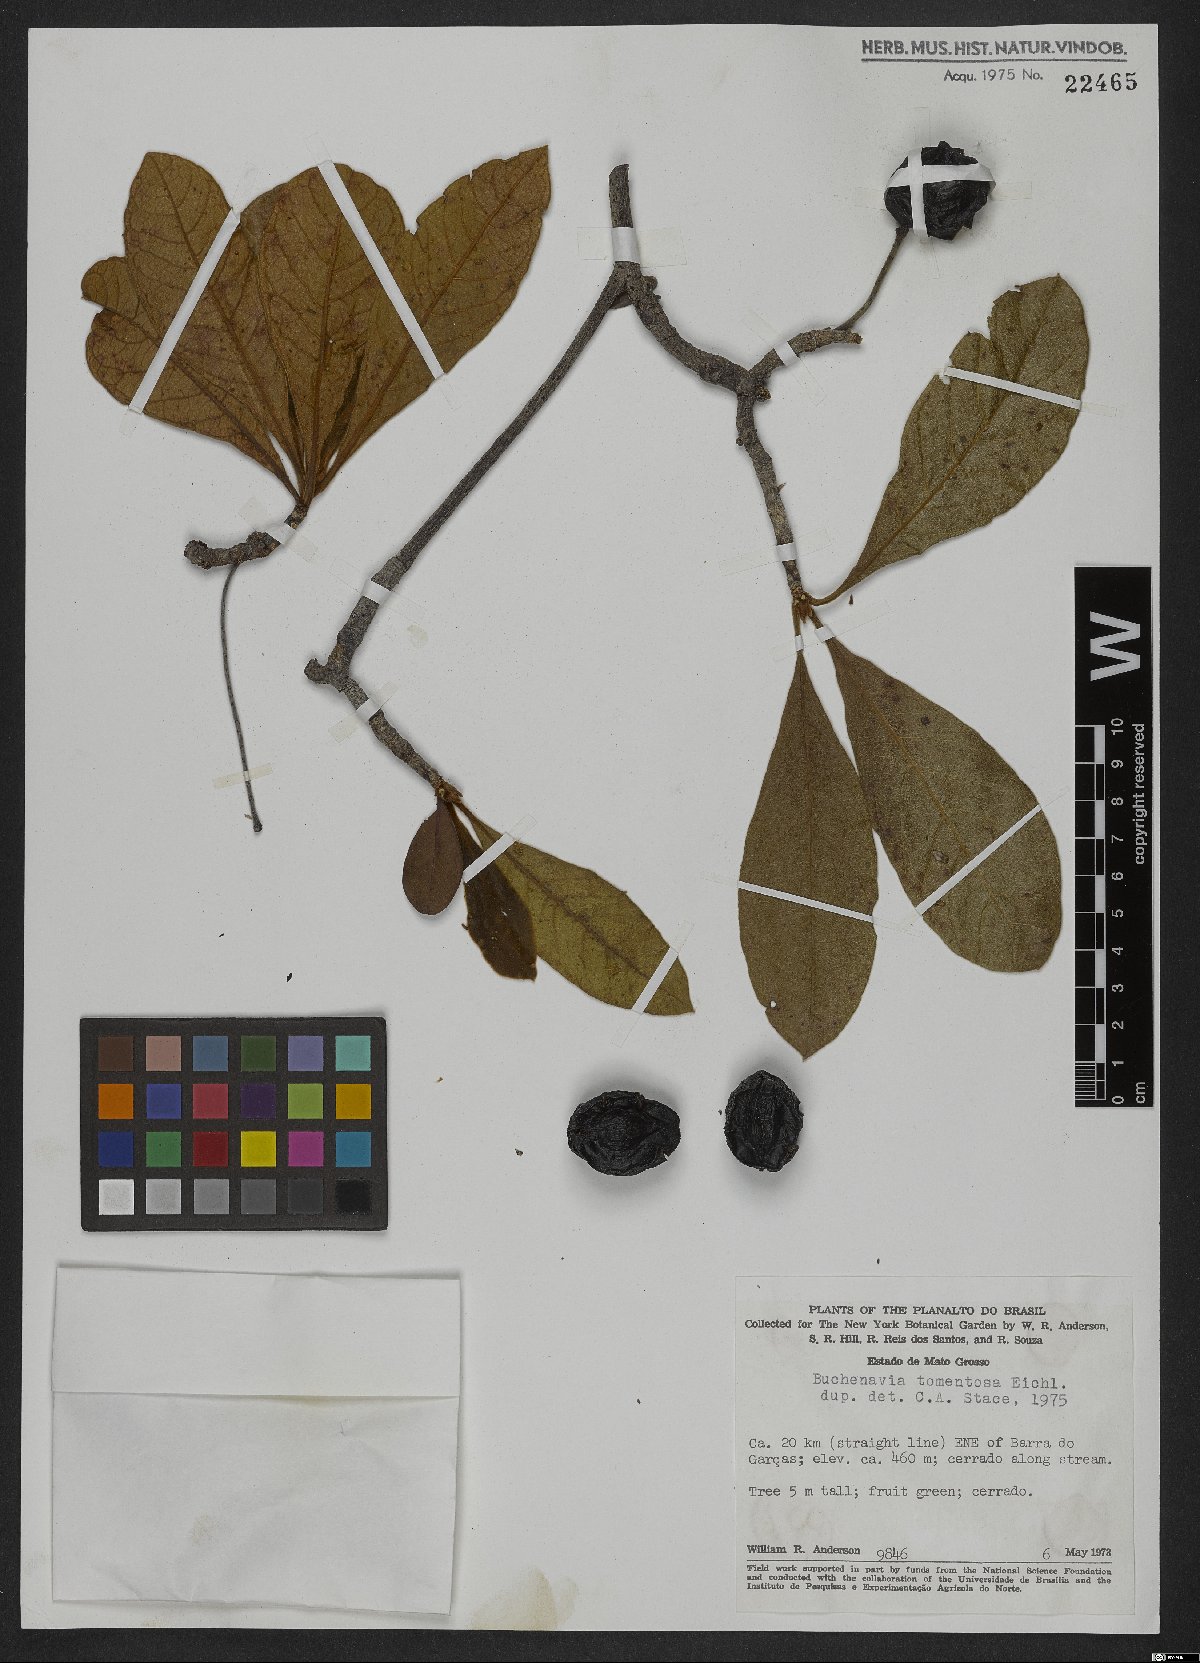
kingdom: Plantae
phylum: Tracheophyta
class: Magnoliopsida
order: Myrtales
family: Combretaceae
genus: Terminalia
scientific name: Terminalia corrugata
